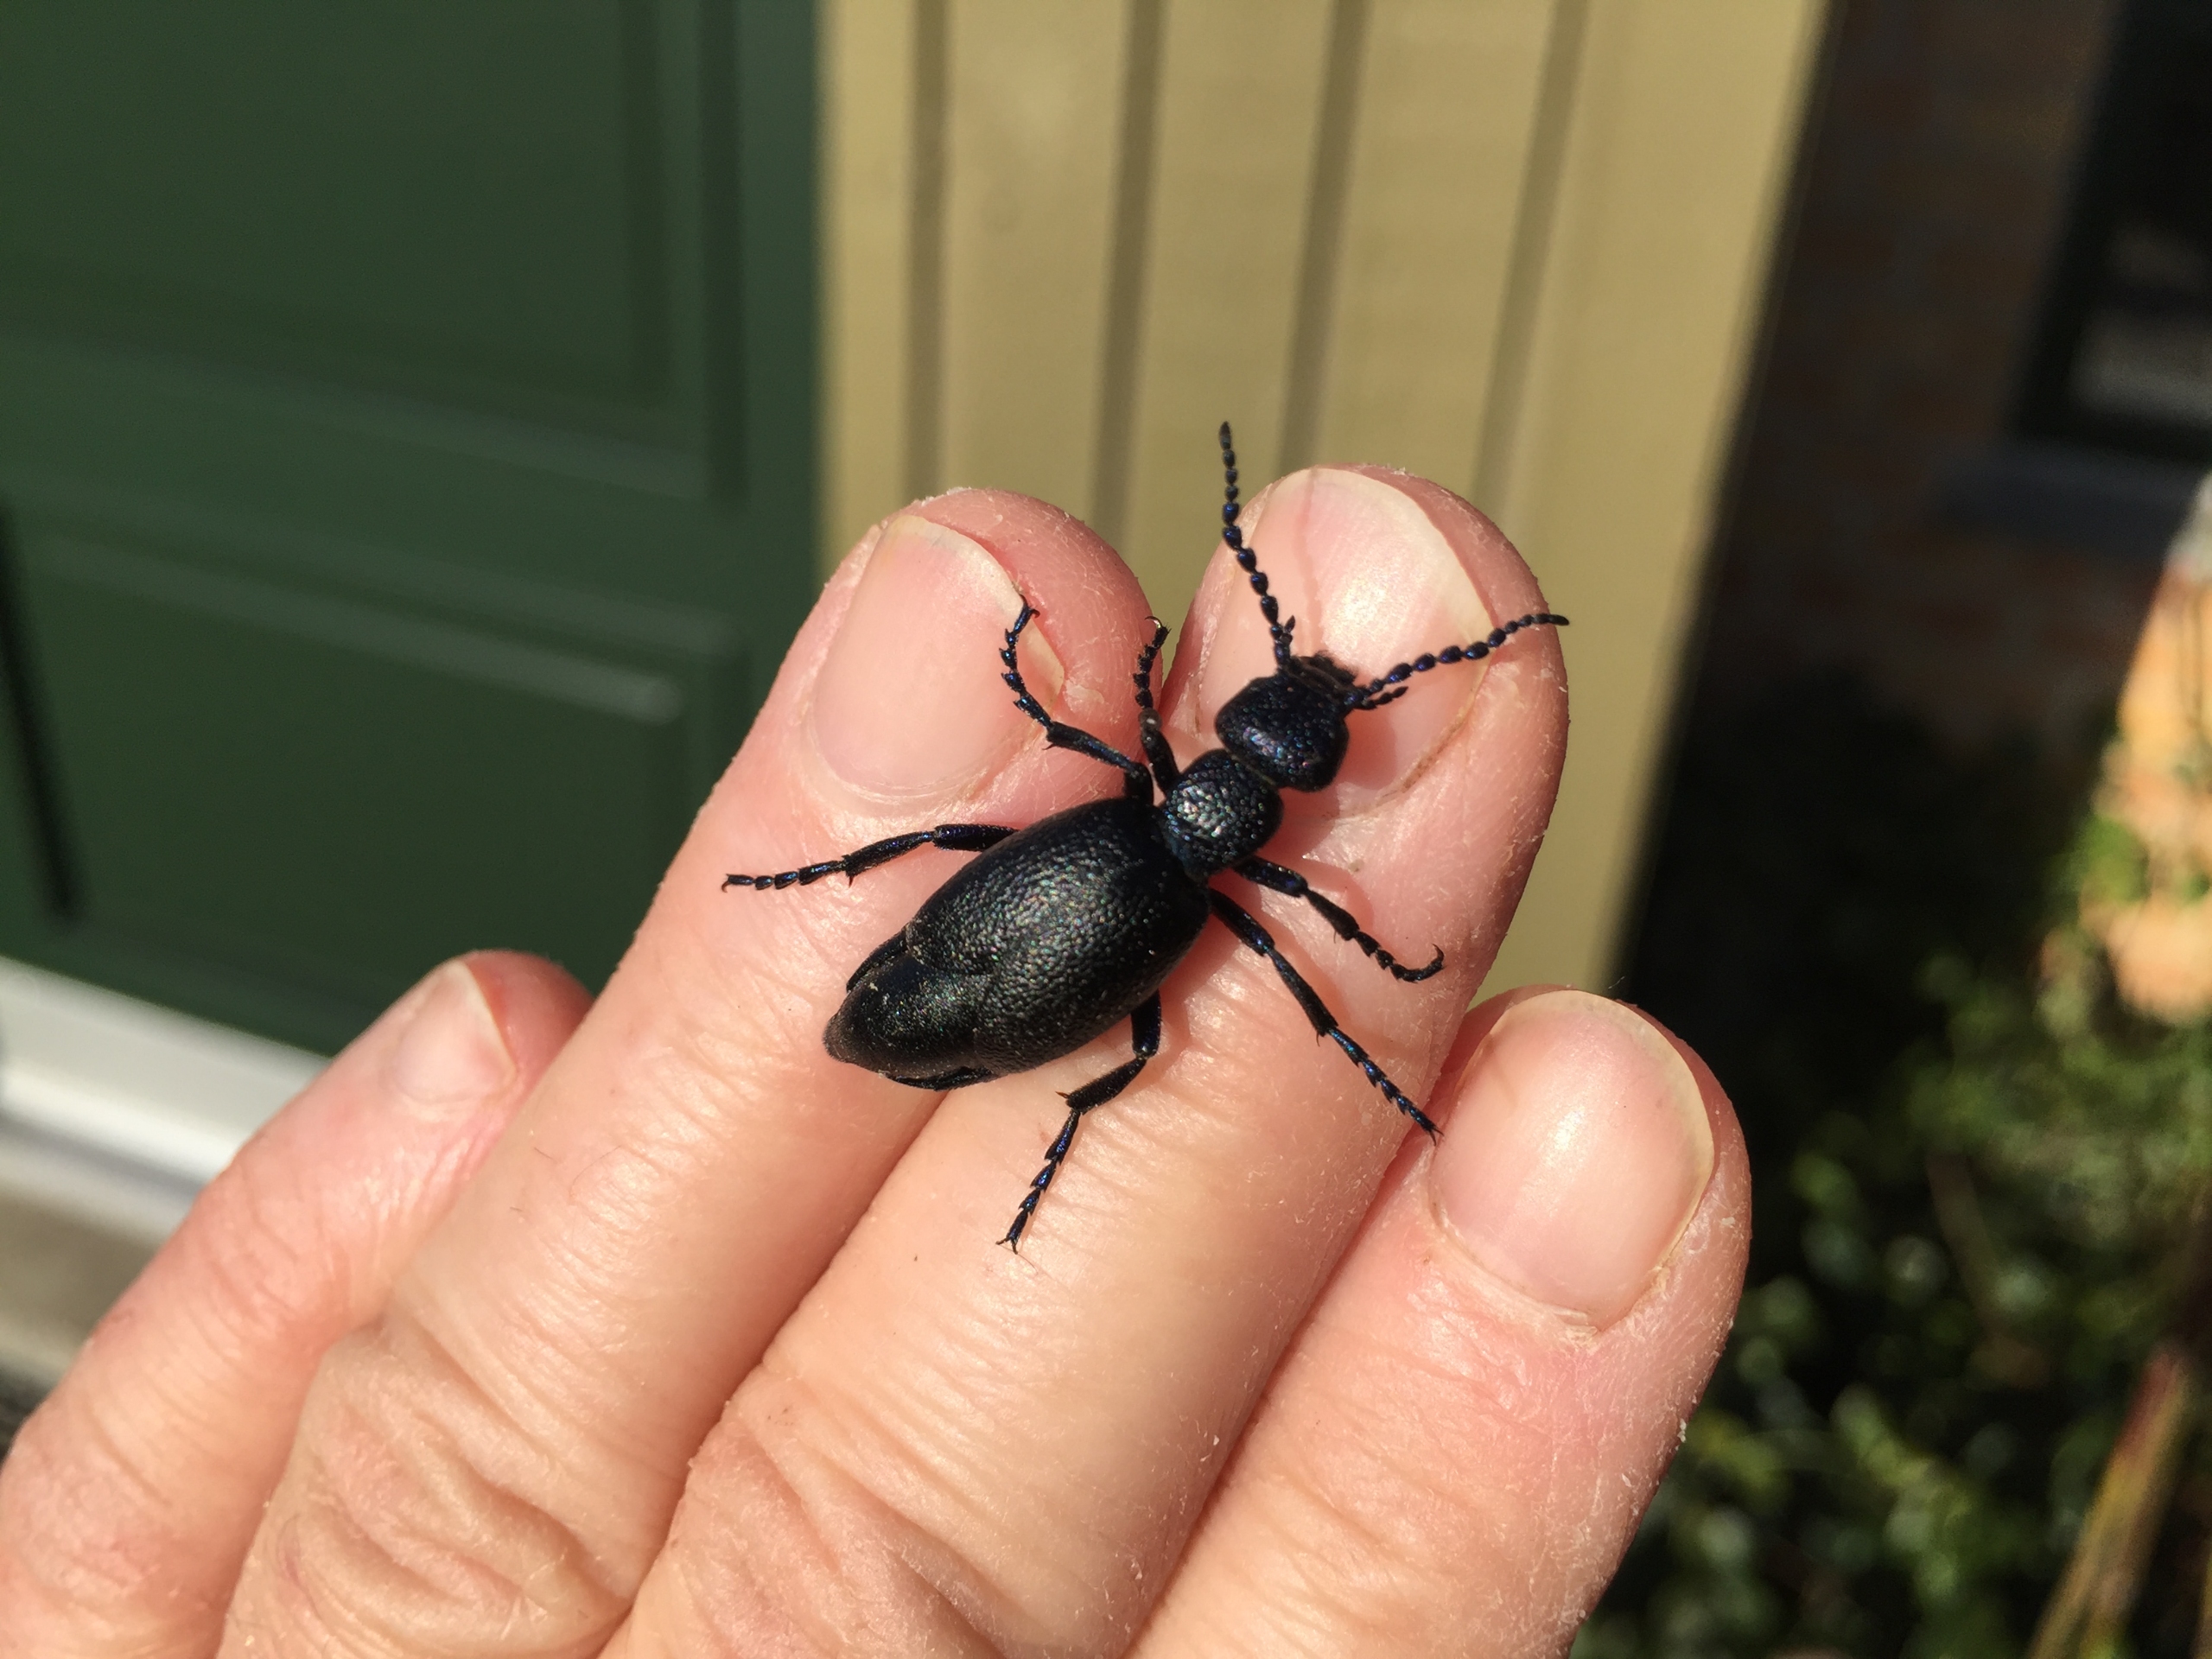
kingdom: Animalia
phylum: Arthropoda
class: Insecta
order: Coleoptera
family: Meloidae
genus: Meloe
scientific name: Meloe proscarabaeus
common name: Sort oliebille
